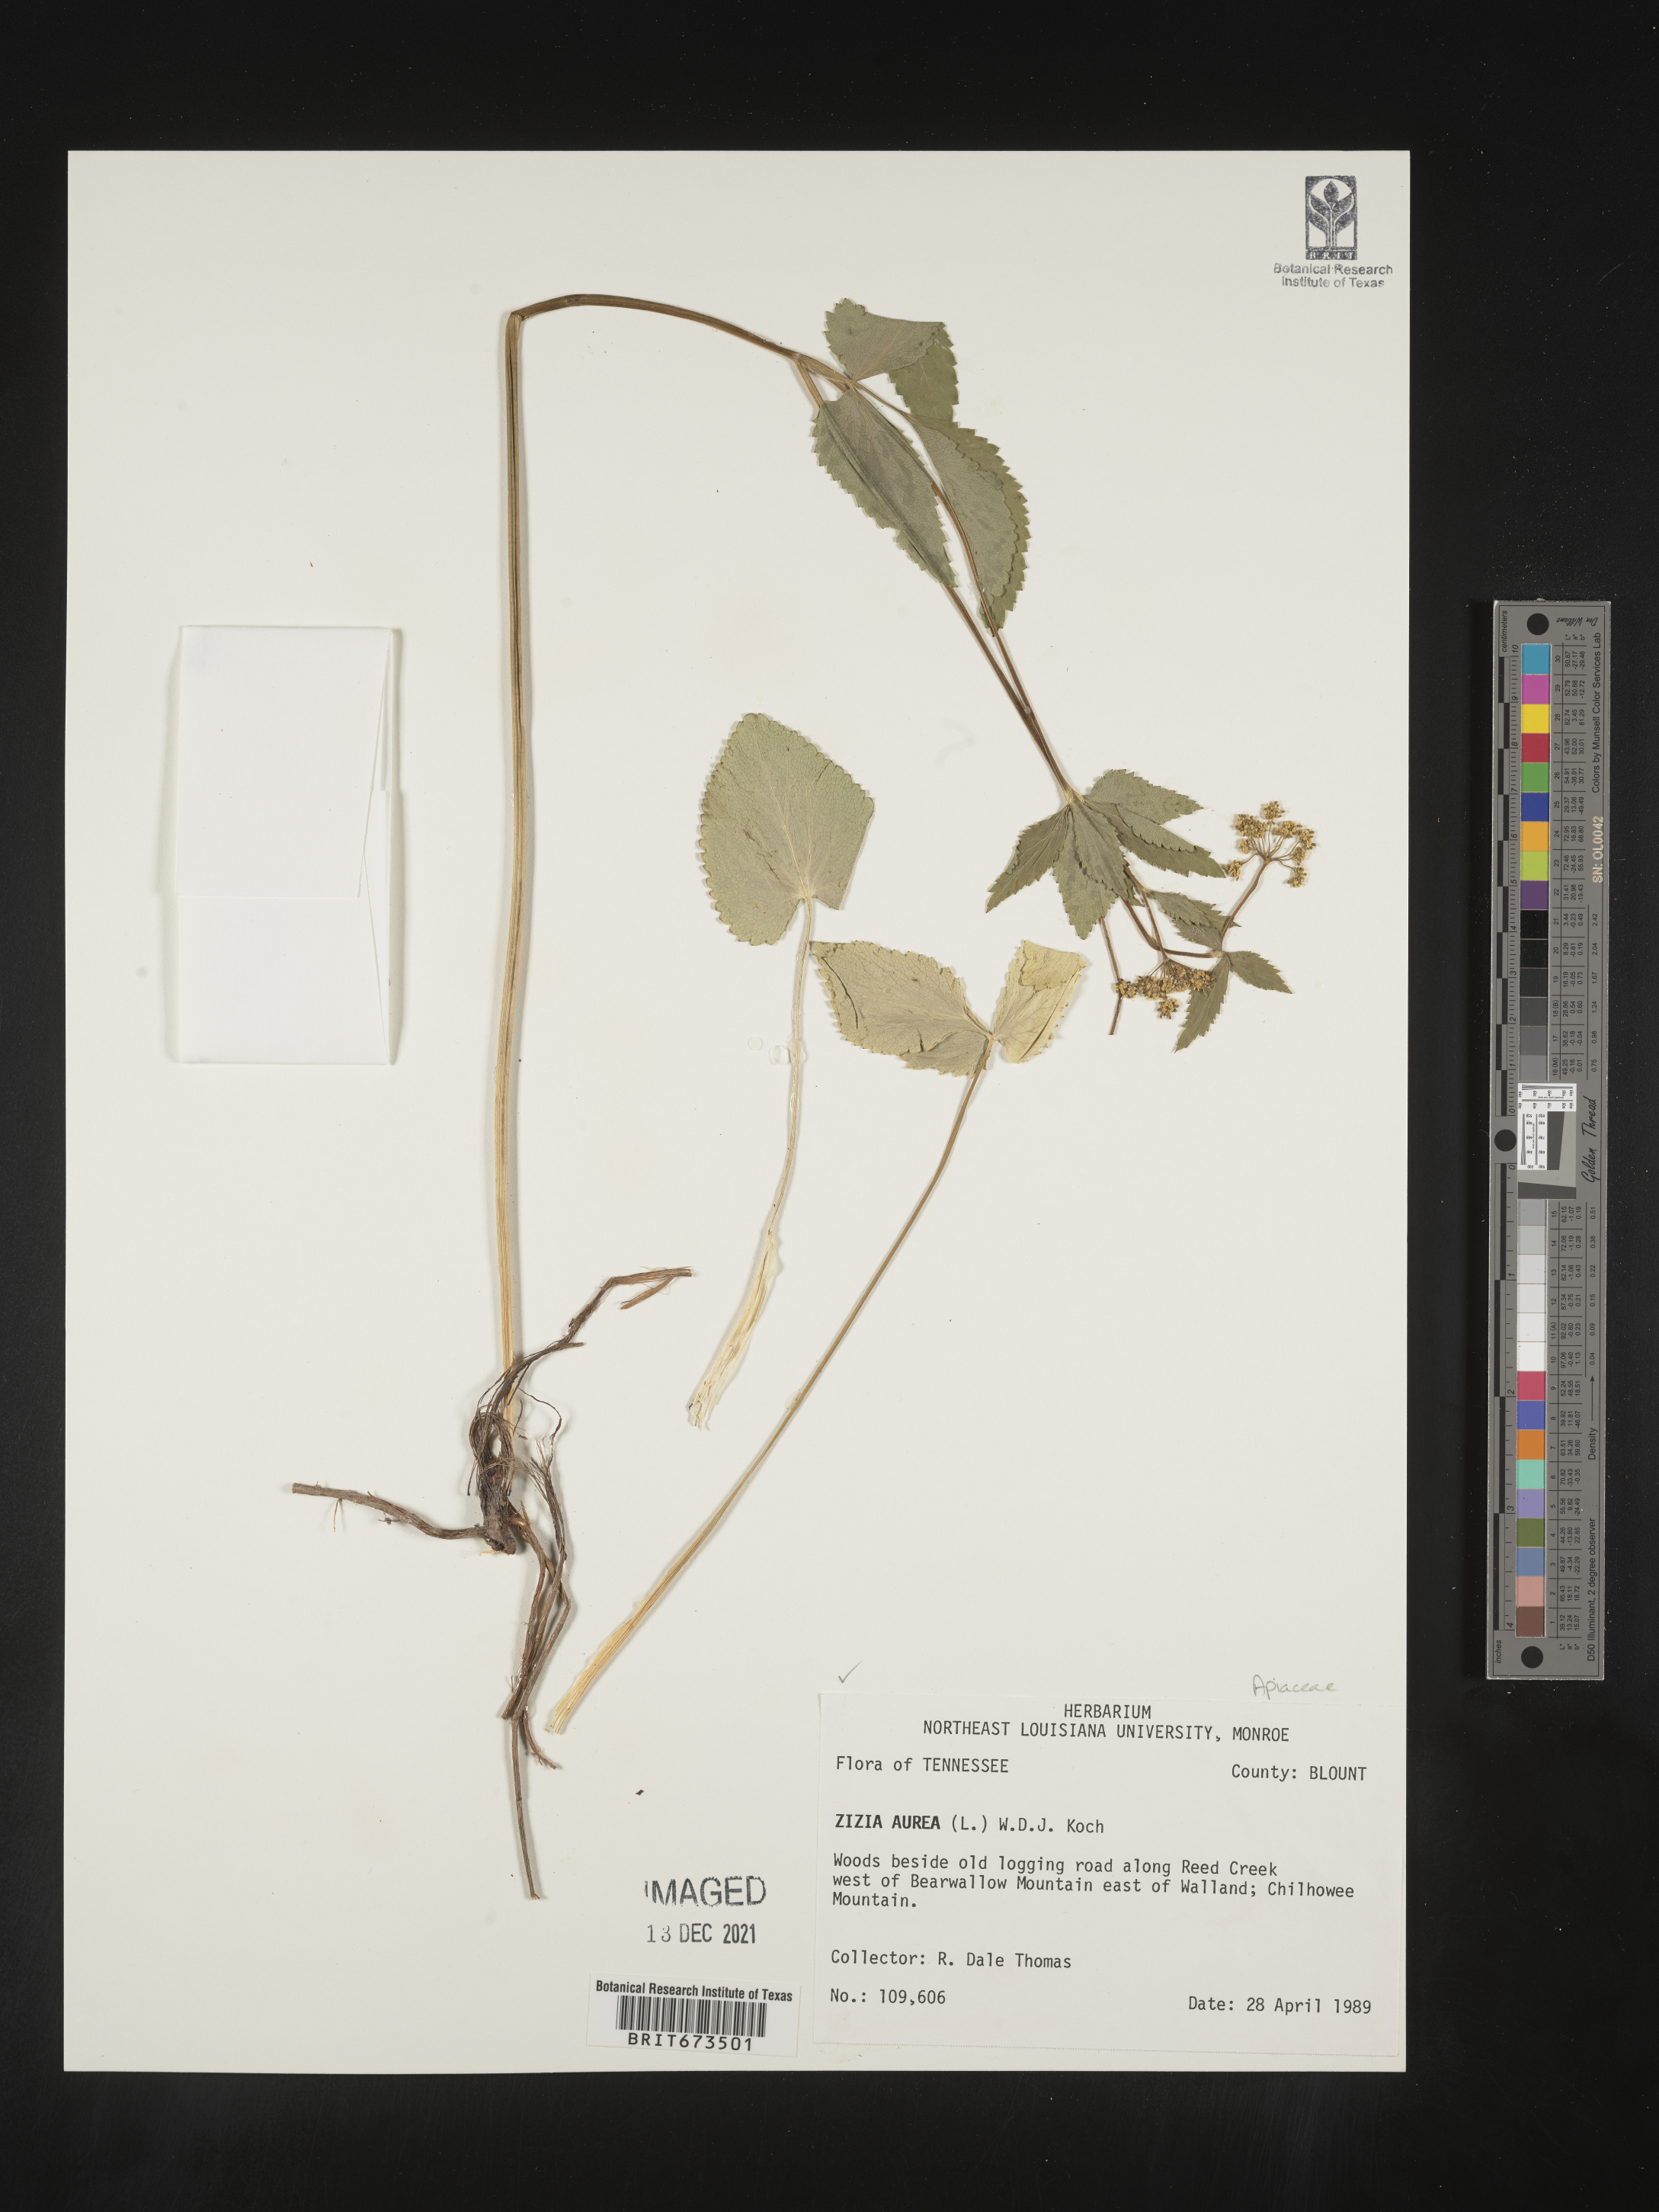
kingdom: Plantae
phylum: Tracheophyta
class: Magnoliopsida
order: Apiales
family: Apiaceae
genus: Zizia
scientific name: Zizia aurea
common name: Golden alexanders
